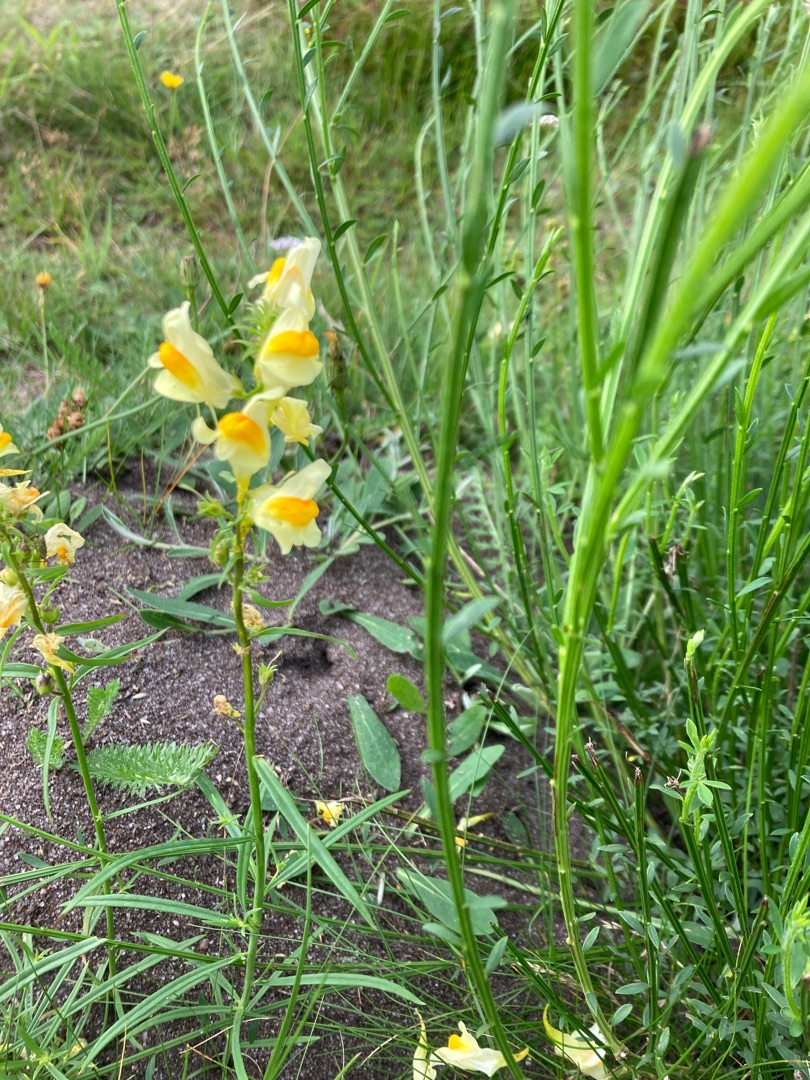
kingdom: Plantae
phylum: Tracheophyta
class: Magnoliopsida
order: Lamiales
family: Plantaginaceae
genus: Linaria
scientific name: Linaria vulgaris
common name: Almindelig torskemund
